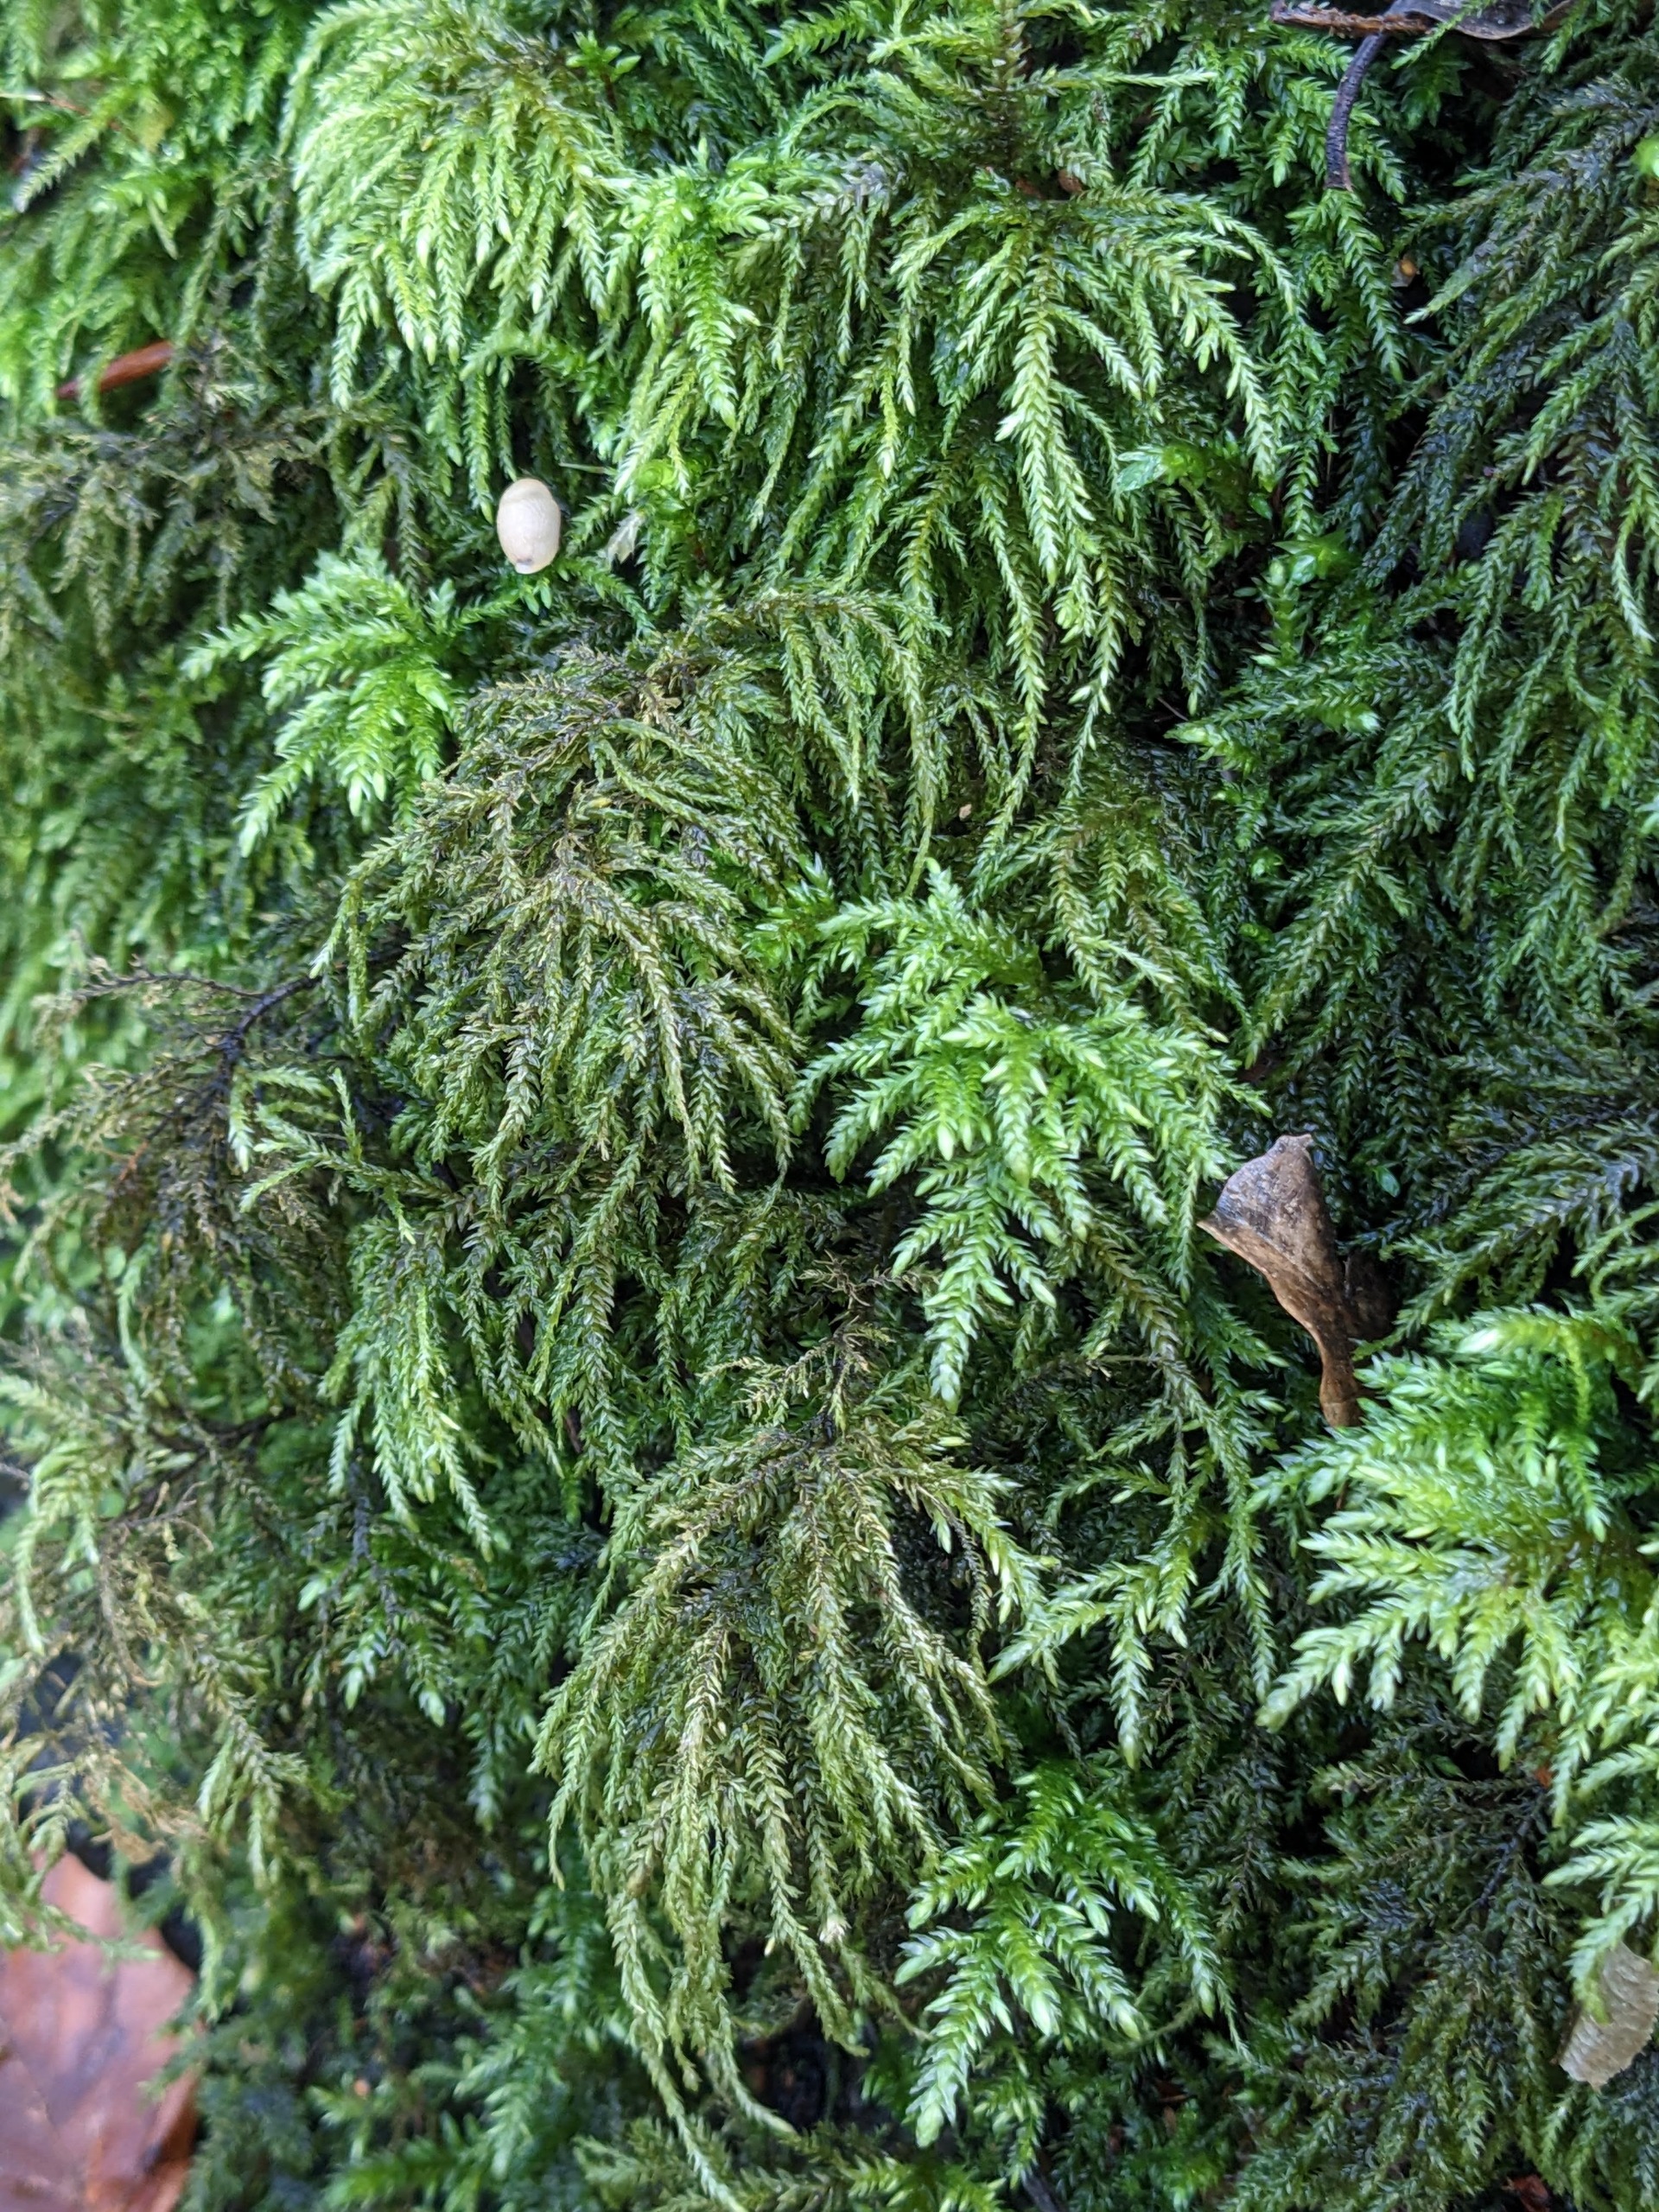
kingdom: Plantae
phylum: Bryophyta
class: Bryopsida
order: Hypnales
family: Neckeraceae
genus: Thamnobryum
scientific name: Thamnobryum alopecurum
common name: Mat bækkost
